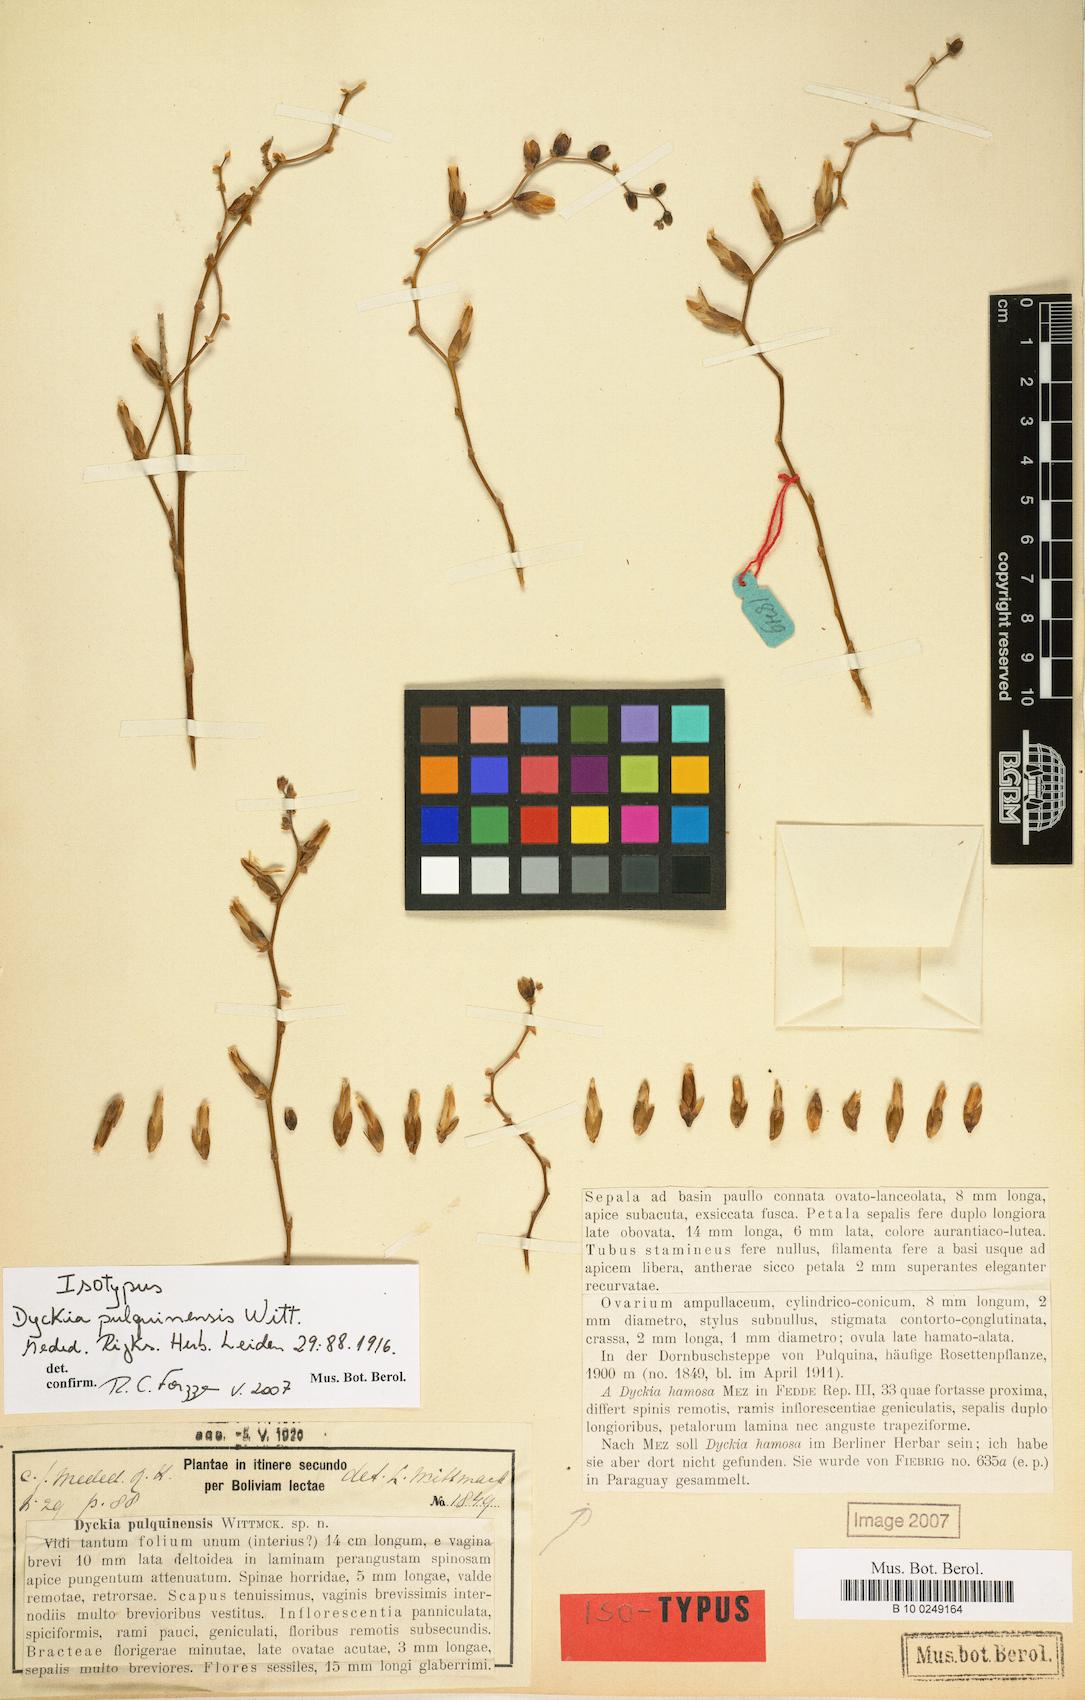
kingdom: Plantae
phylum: Tracheophyta
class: Liliopsida
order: Poales
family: Bromeliaceae
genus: Dyckia
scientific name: Dyckia pulquinensis
